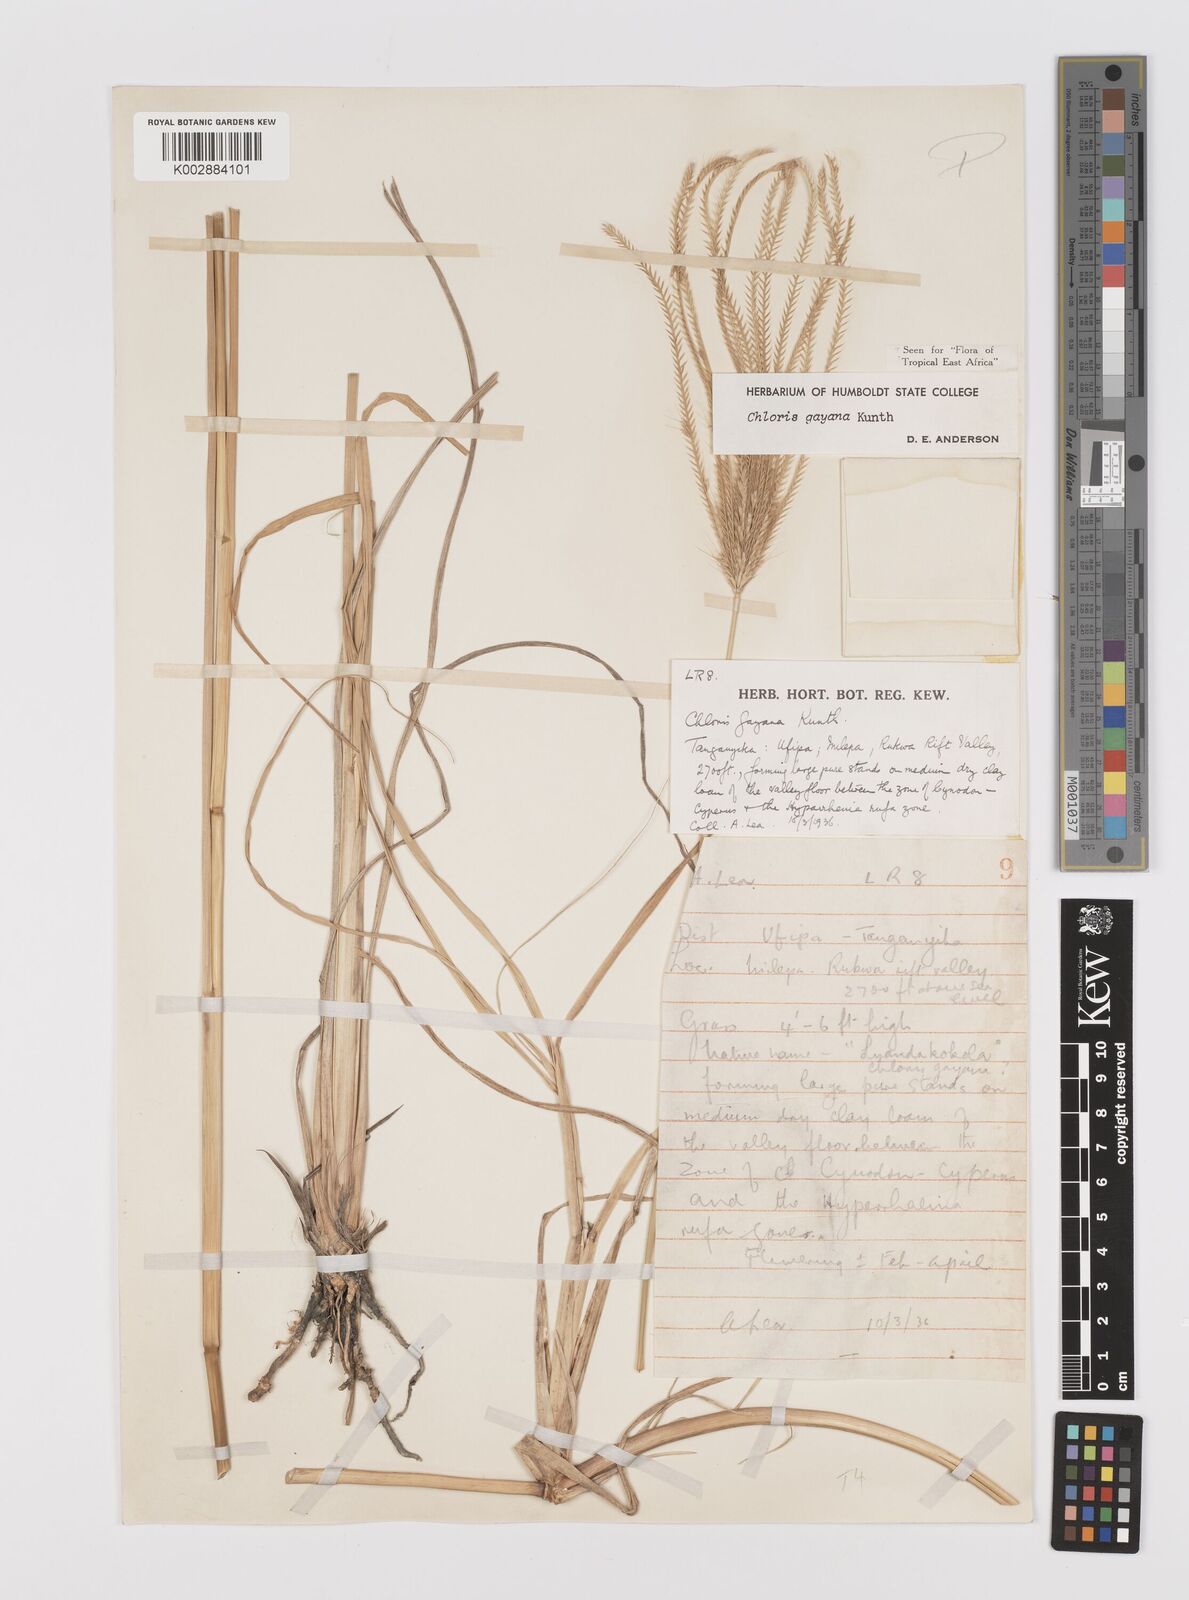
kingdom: Plantae
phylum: Tracheophyta
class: Liliopsida
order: Poales
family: Poaceae
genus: Chloris
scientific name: Chloris gayana
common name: Rhodes grass
